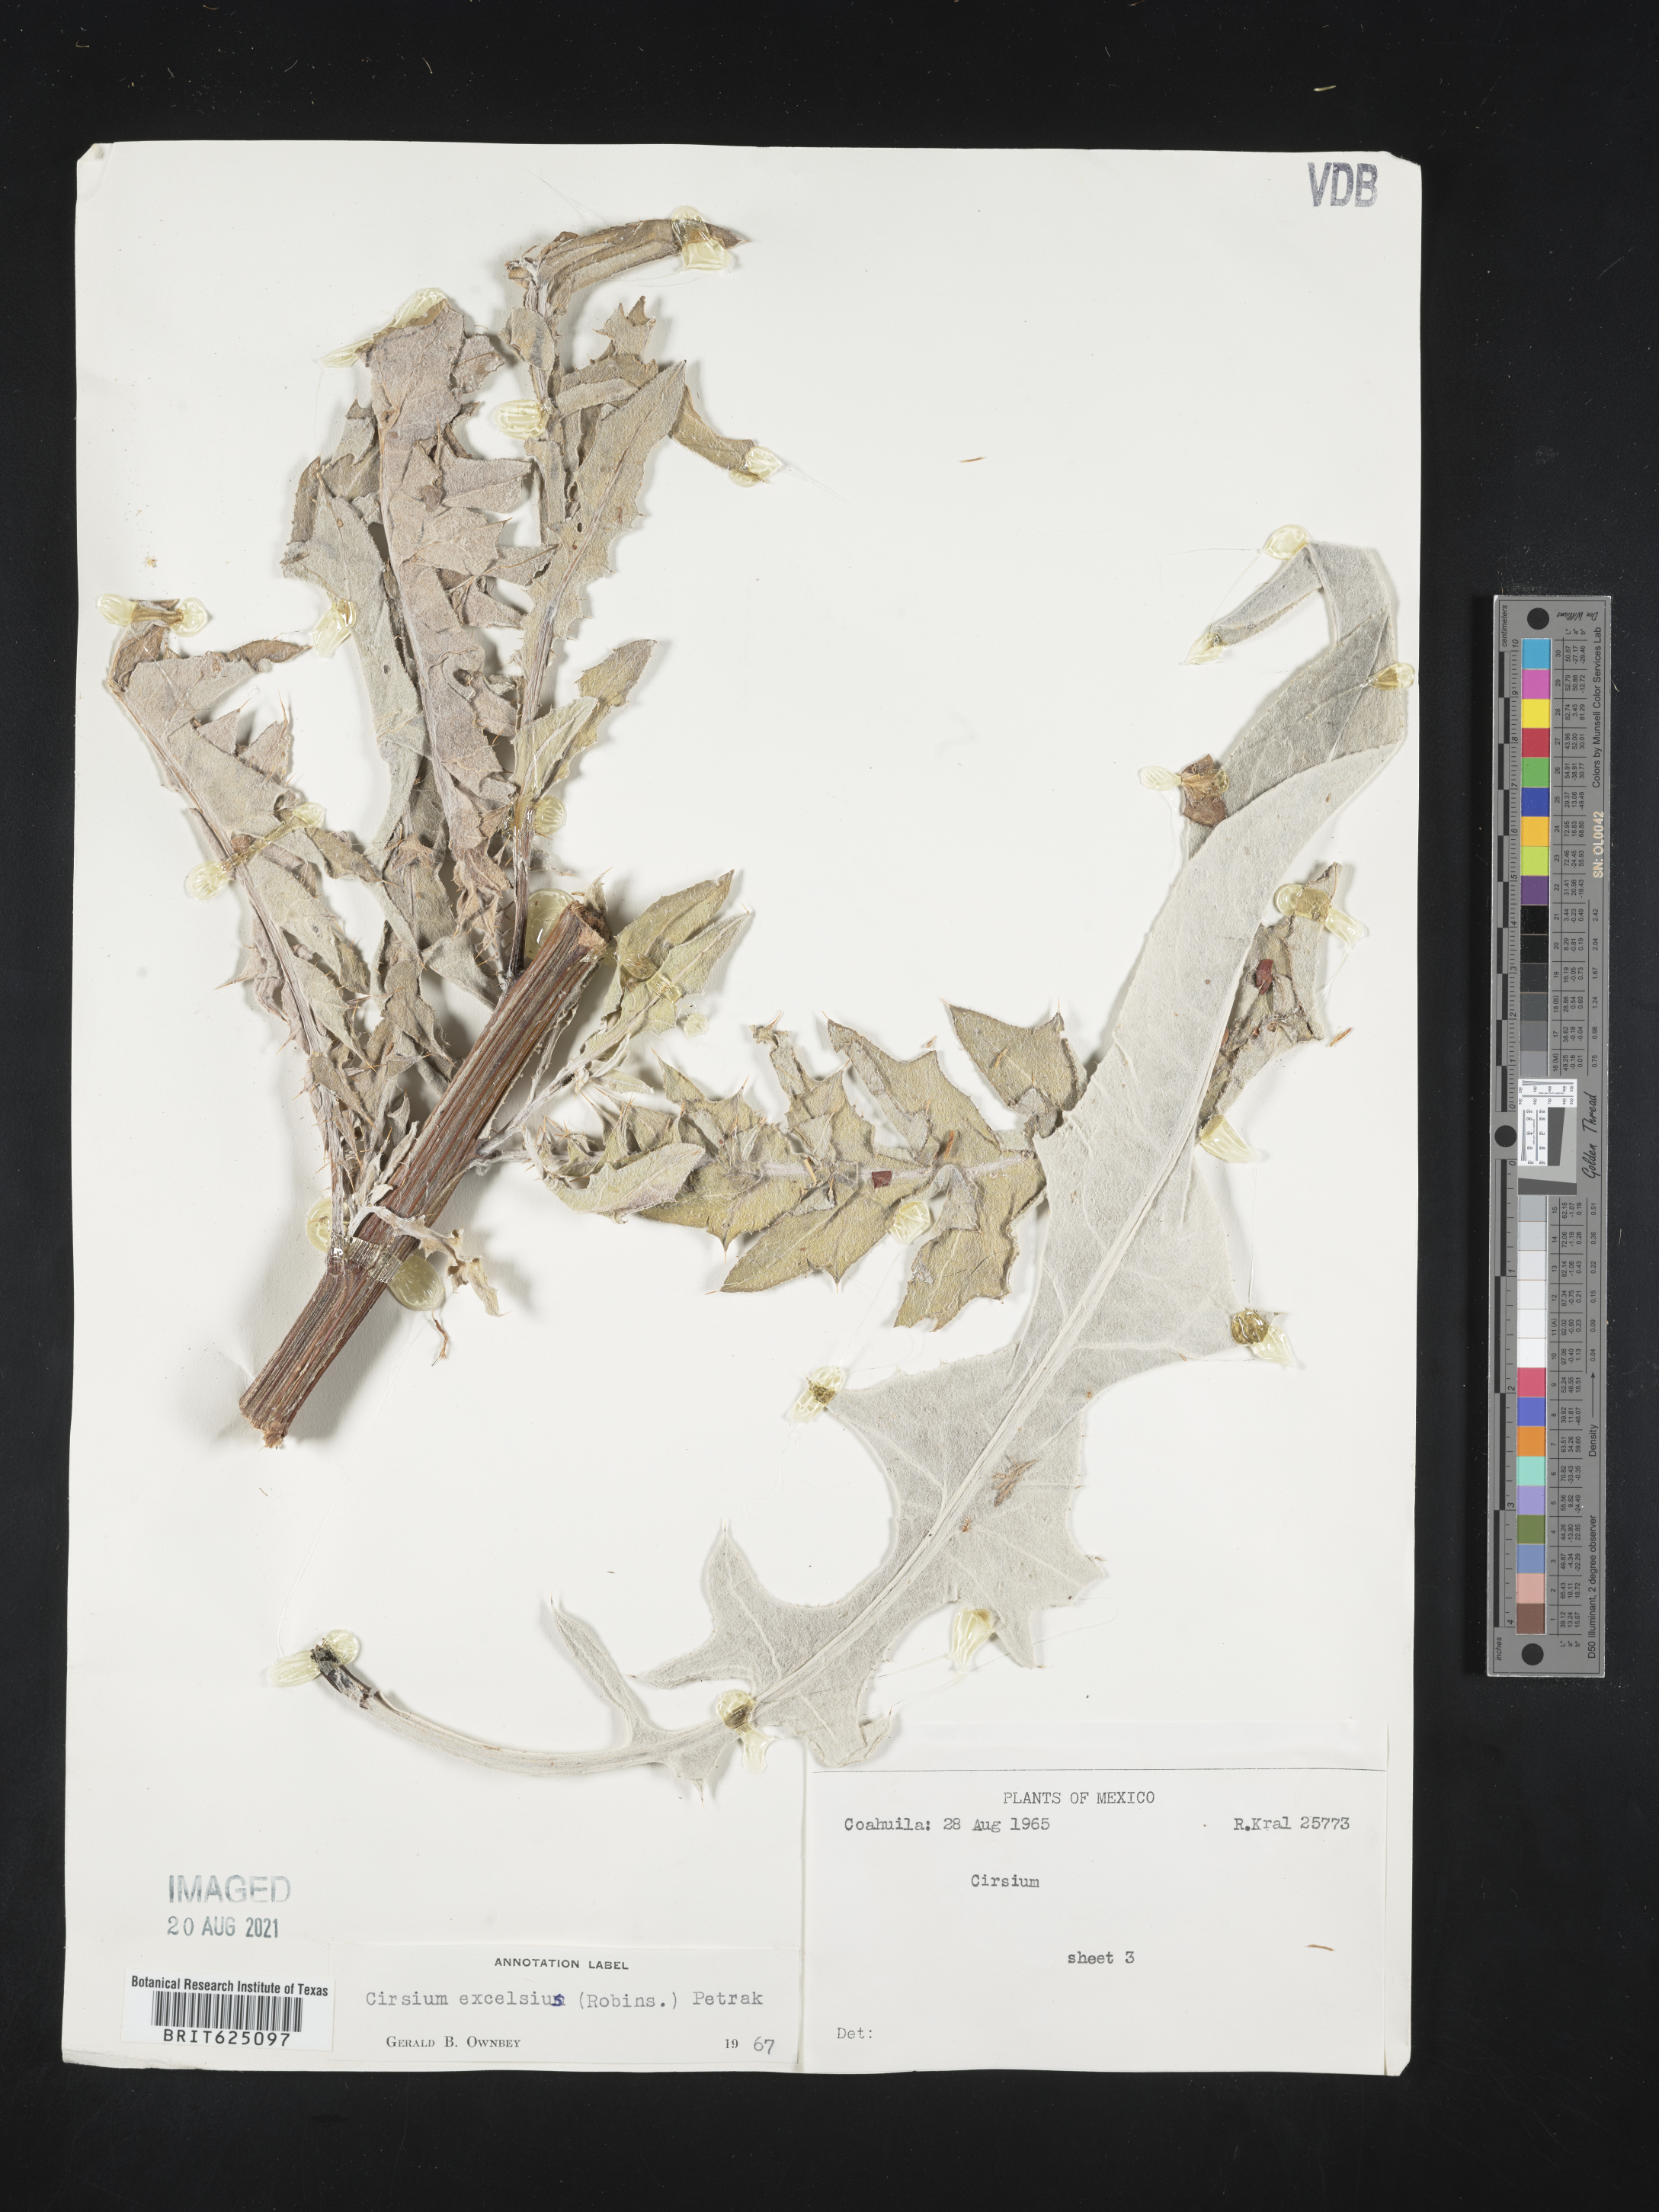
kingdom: Plantae
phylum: Tracheophyta
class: Magnoliopsida
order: Asterales
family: Asteraceae
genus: Cirsium
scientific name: Cirsium
